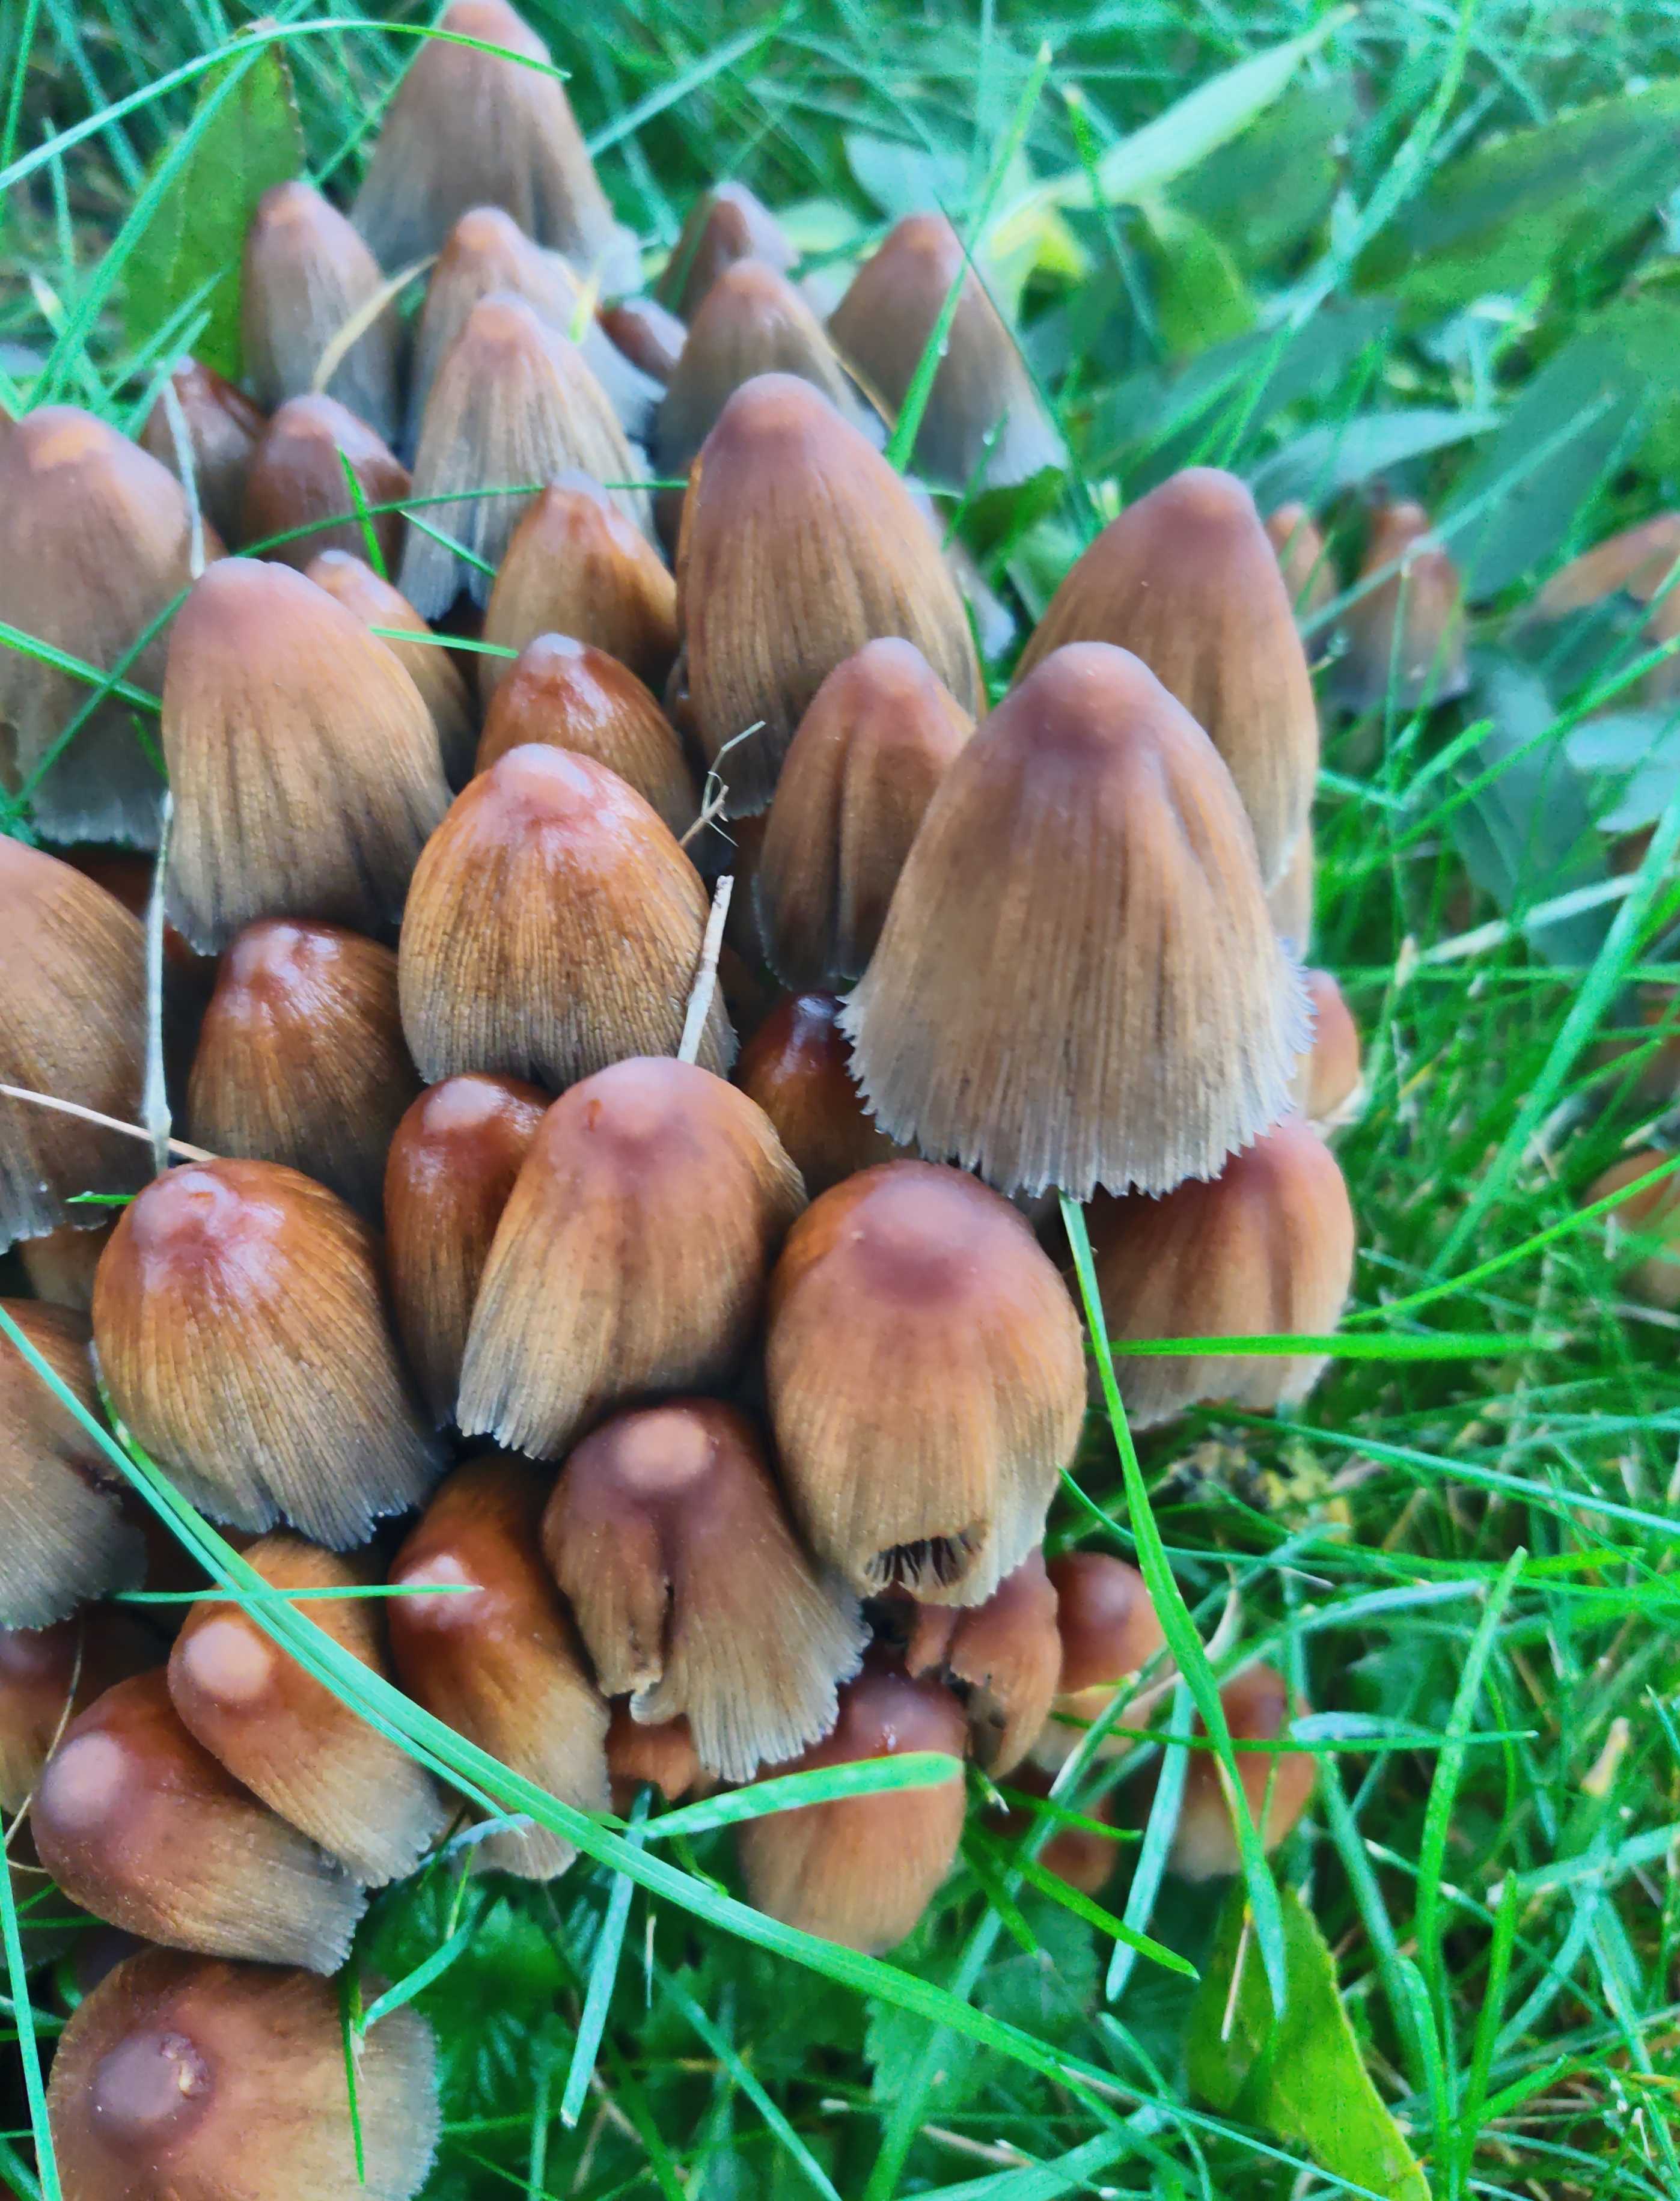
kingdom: Fungi
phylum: Basidiomycota
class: Agaricomycetes
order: Agaricales
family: Psathyrellaceae
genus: Coprinellus
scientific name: Coprinellus
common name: blækhat
